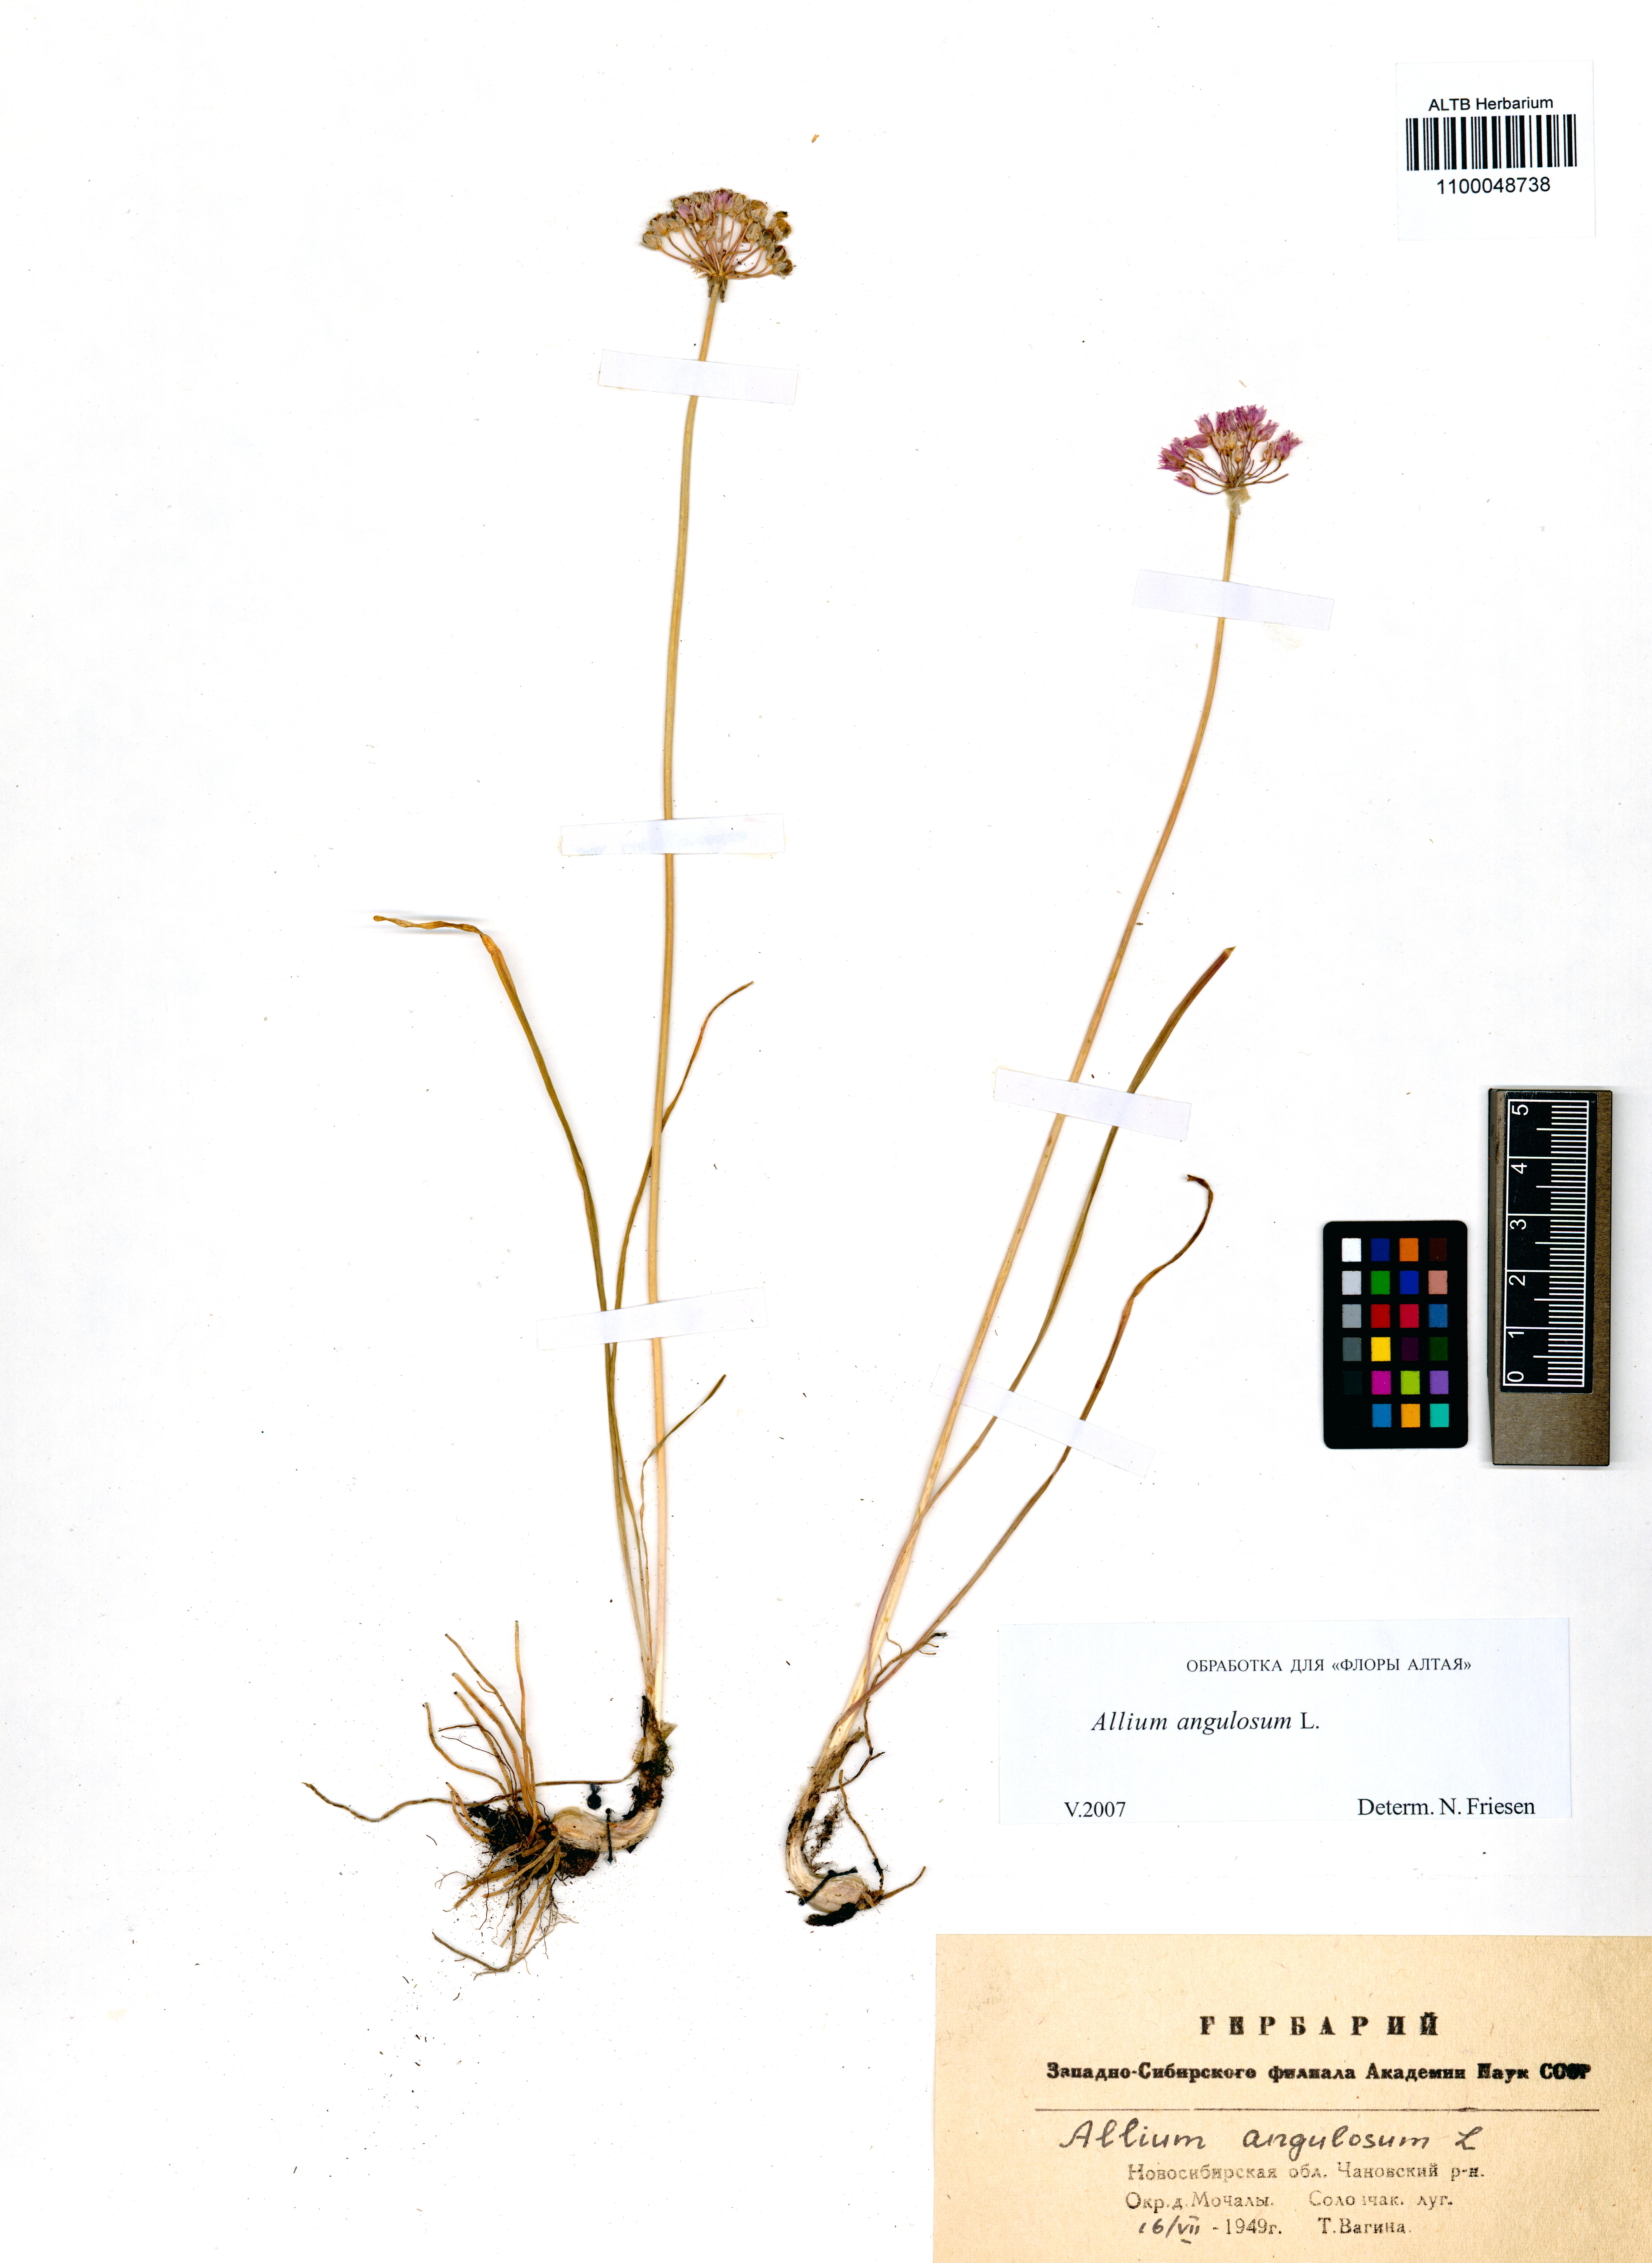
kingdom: Plantae
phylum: Tracheophyta
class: Liliopsida
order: Asparagales
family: Amaryllidaceae
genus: Allium
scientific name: Allium angulosum
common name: Mouse garlic
